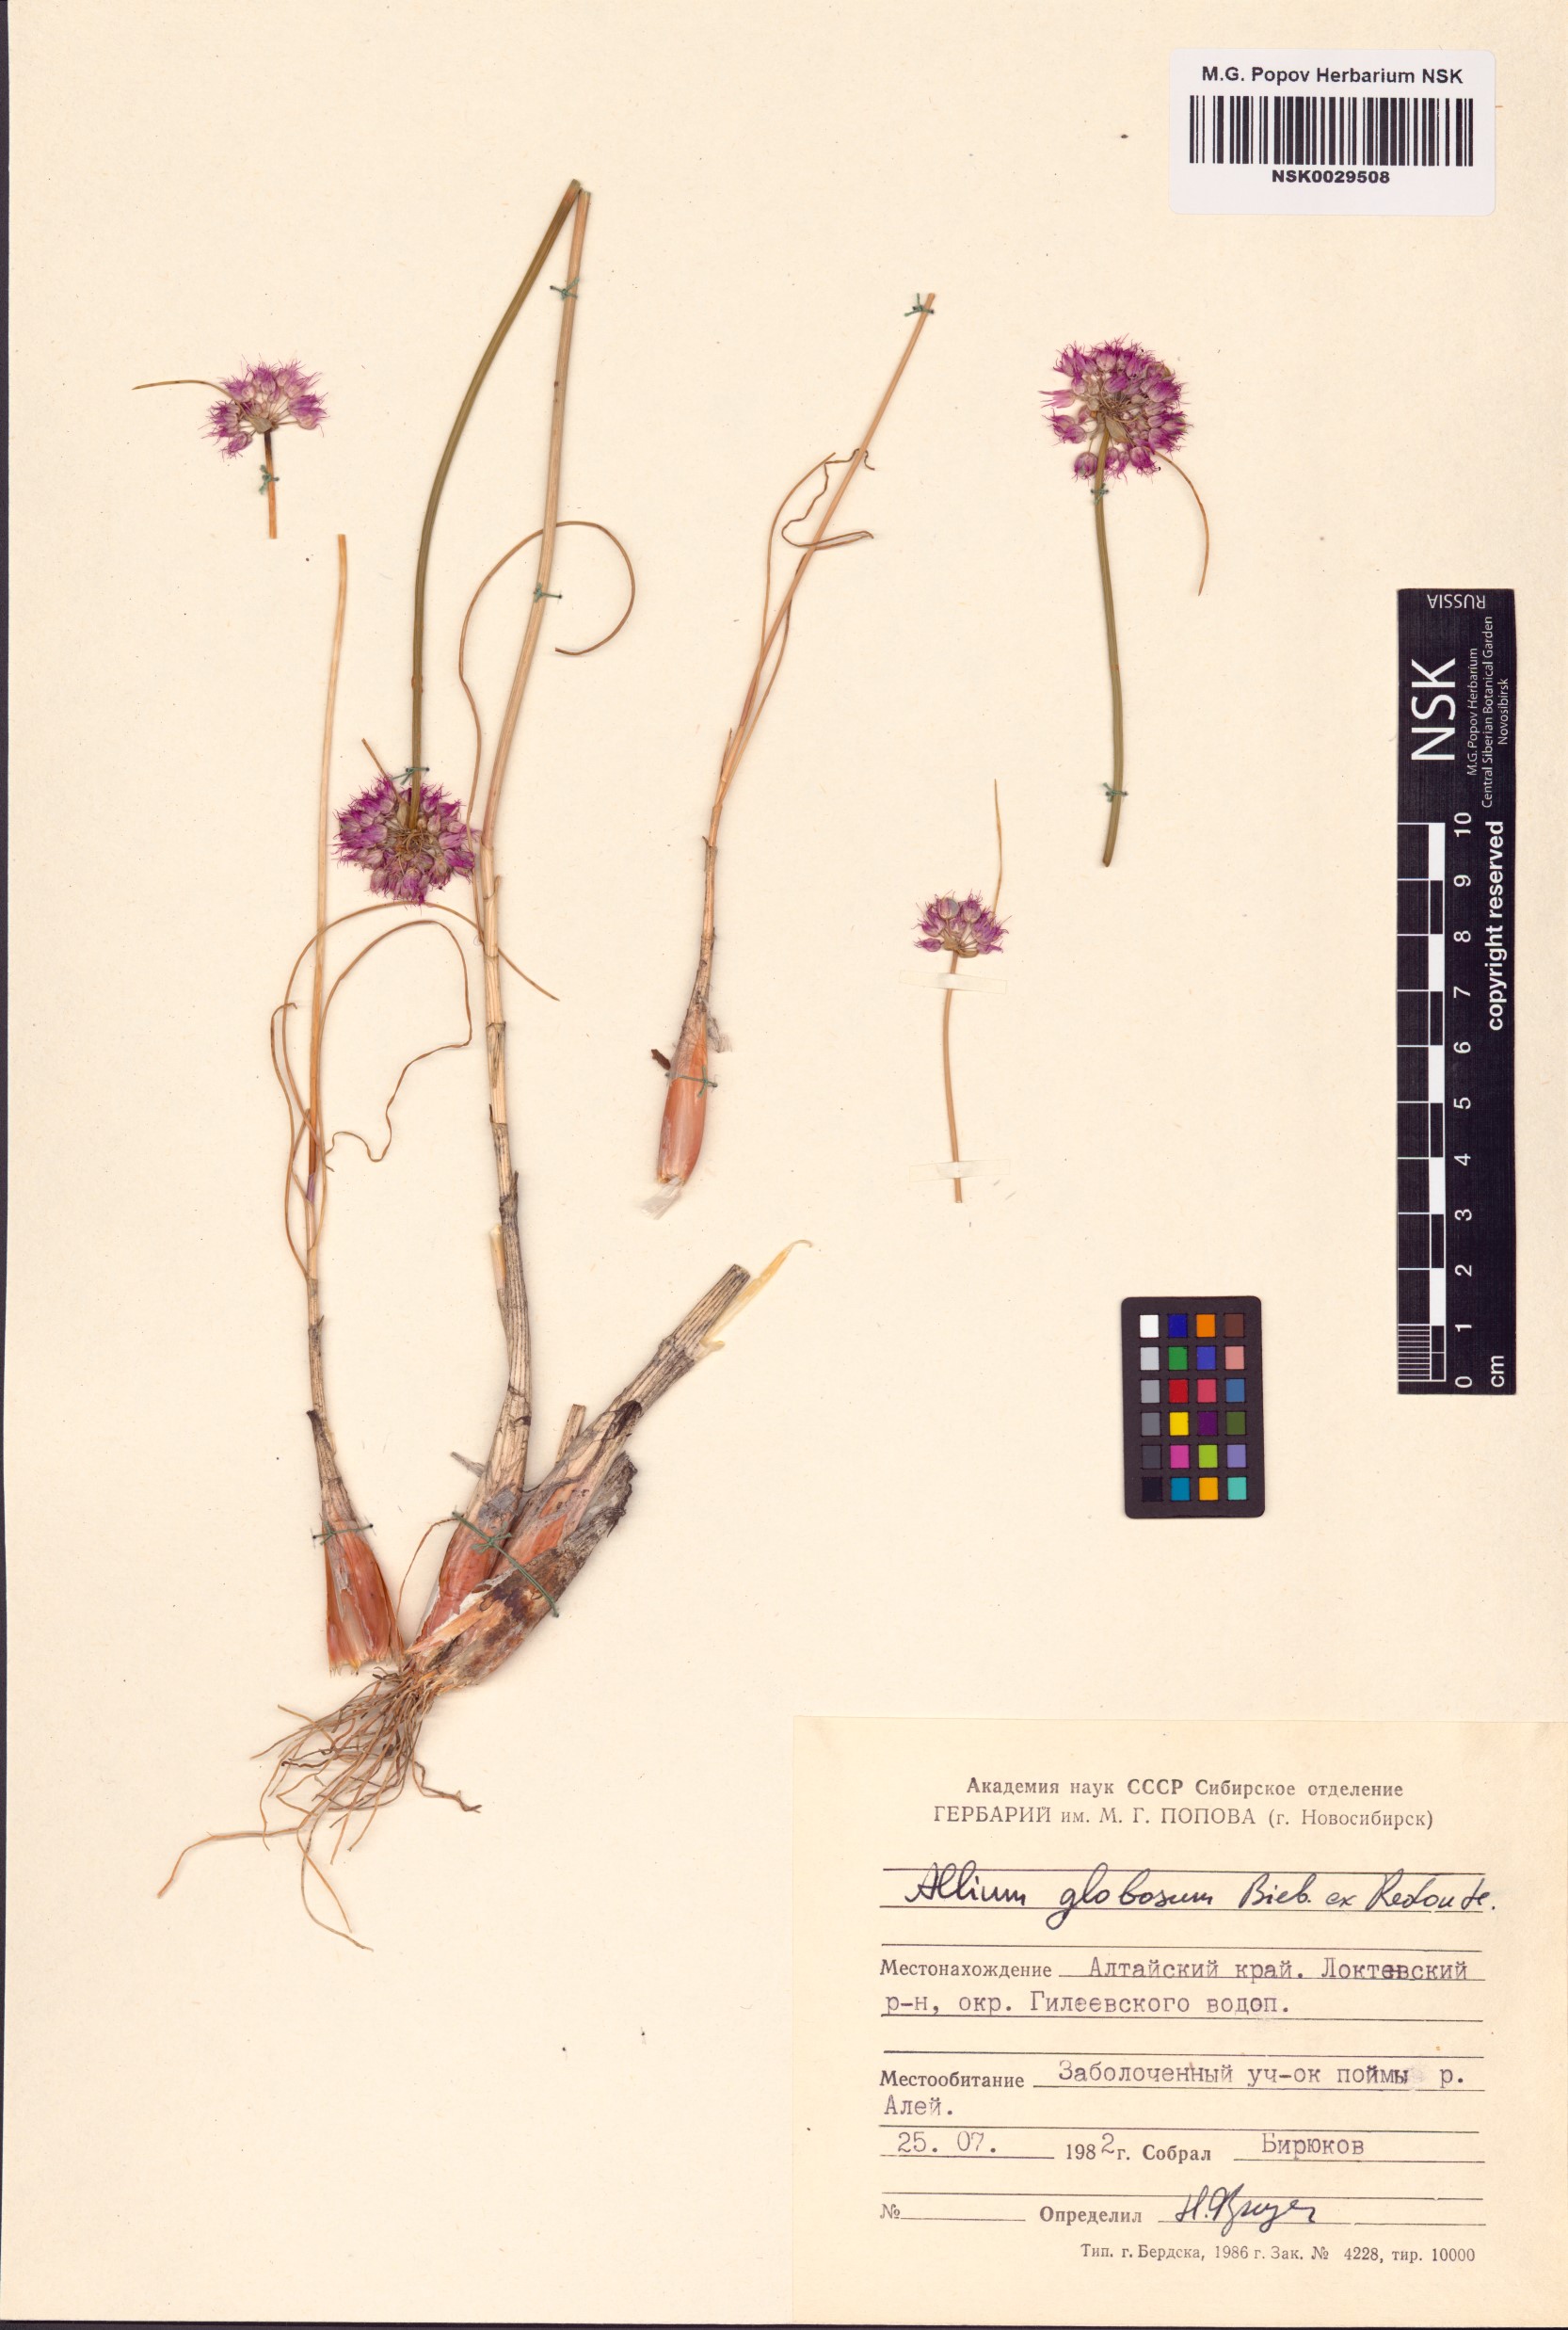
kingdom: Plantae
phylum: Tracheophyta
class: Liliopsida
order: Asparagales
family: Amaryllidaceae
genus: Allium
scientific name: Allium saxatile
